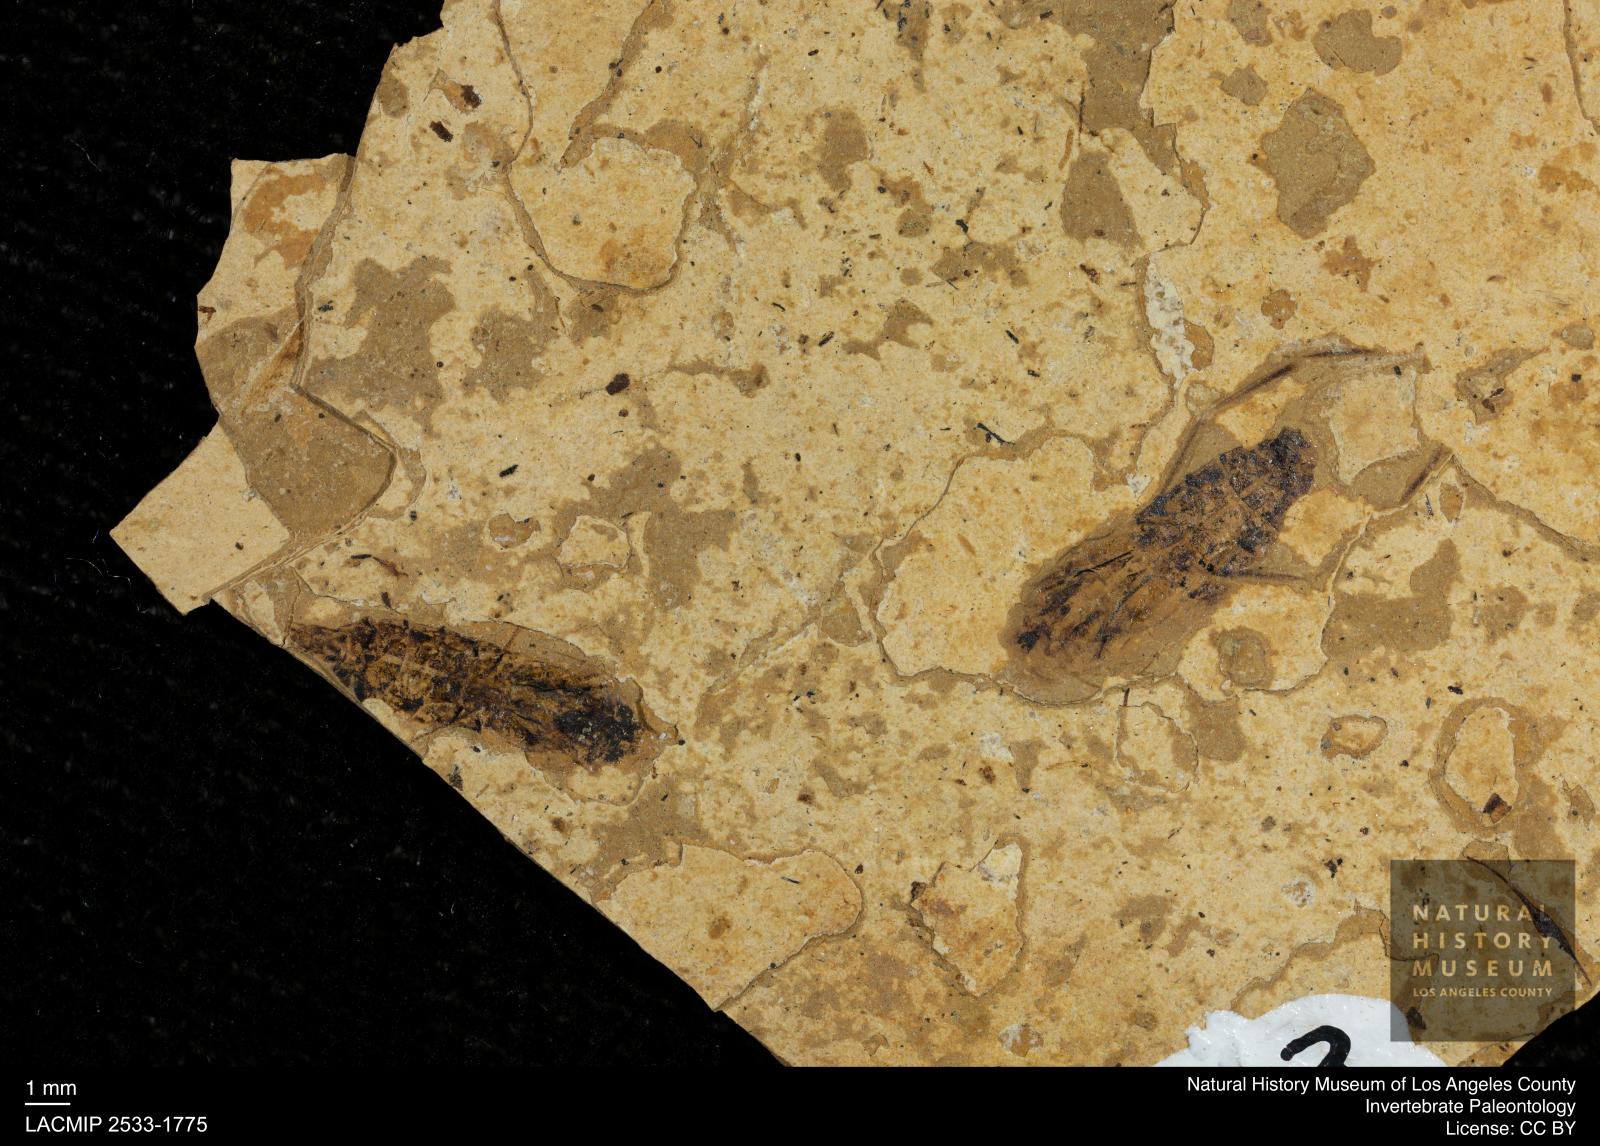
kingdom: Animalia
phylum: Arthropoda
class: Insecta
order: Hemiptera
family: Notonectidae
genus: Notonecta
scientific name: Notonecta
